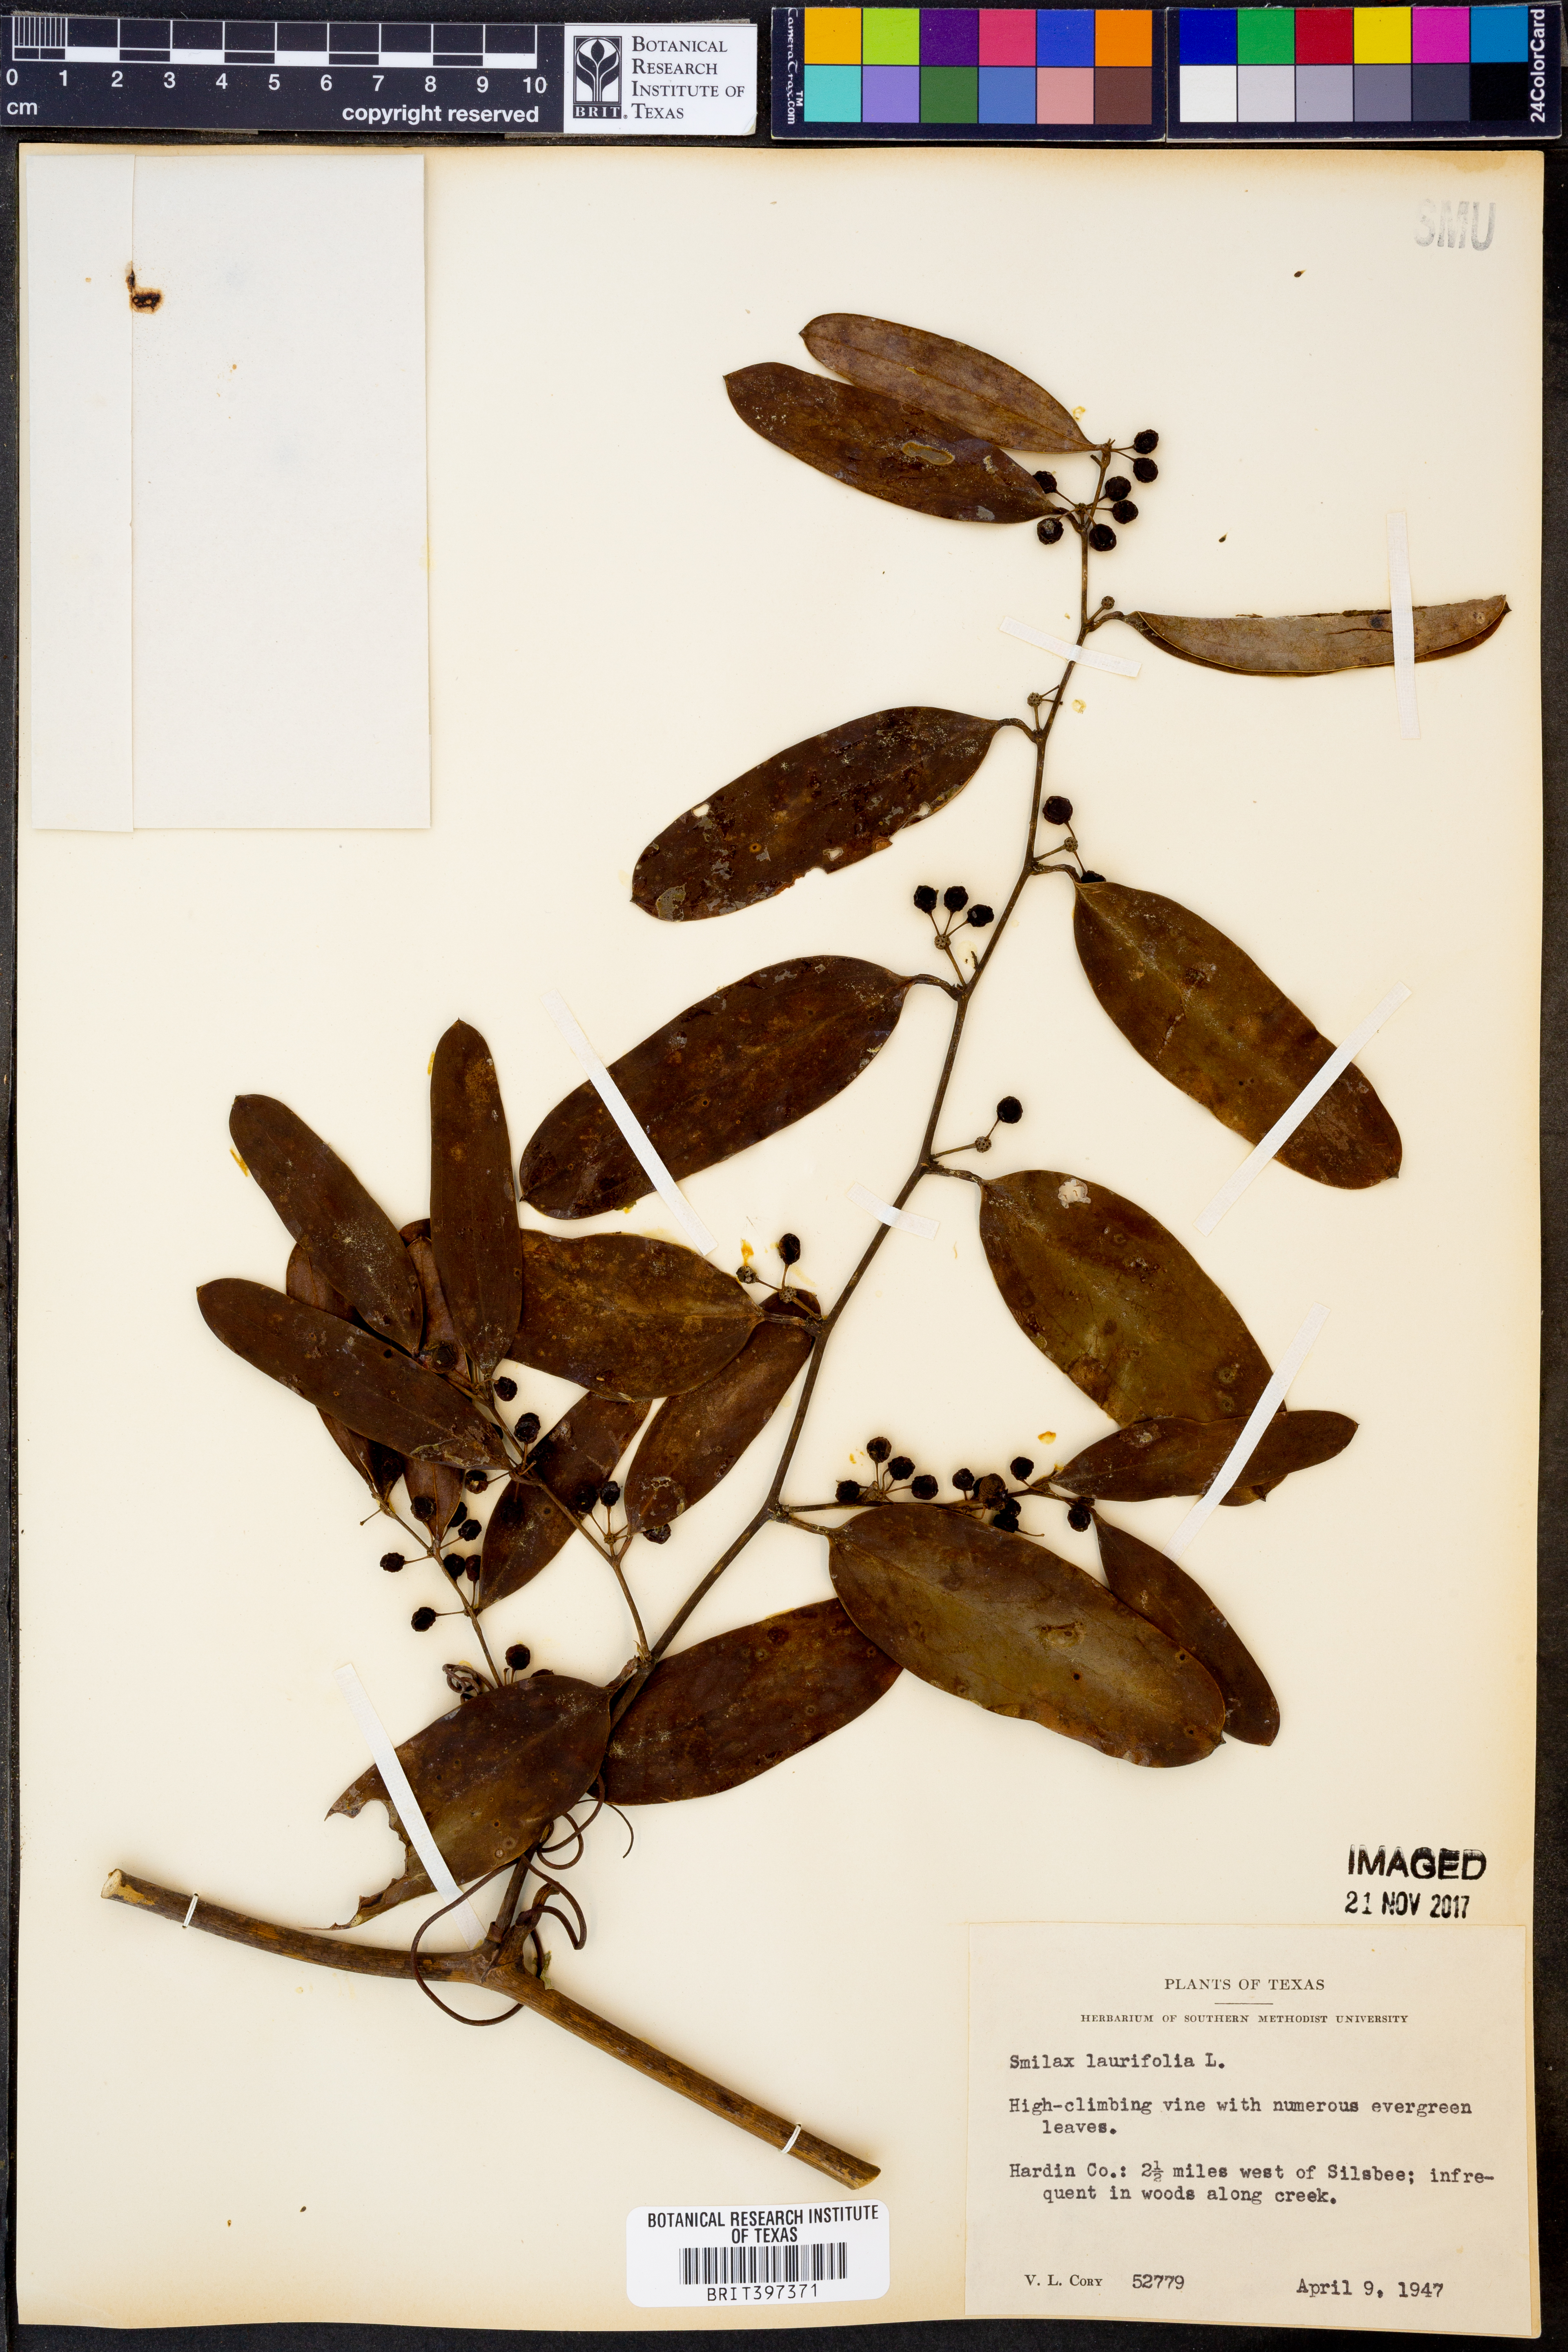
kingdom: Plantae
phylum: Tracheophyta
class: Liliopsida
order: Liliales
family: Smilacaceae
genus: Smilax
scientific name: Smilax laurifolia
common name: Bamboovine
